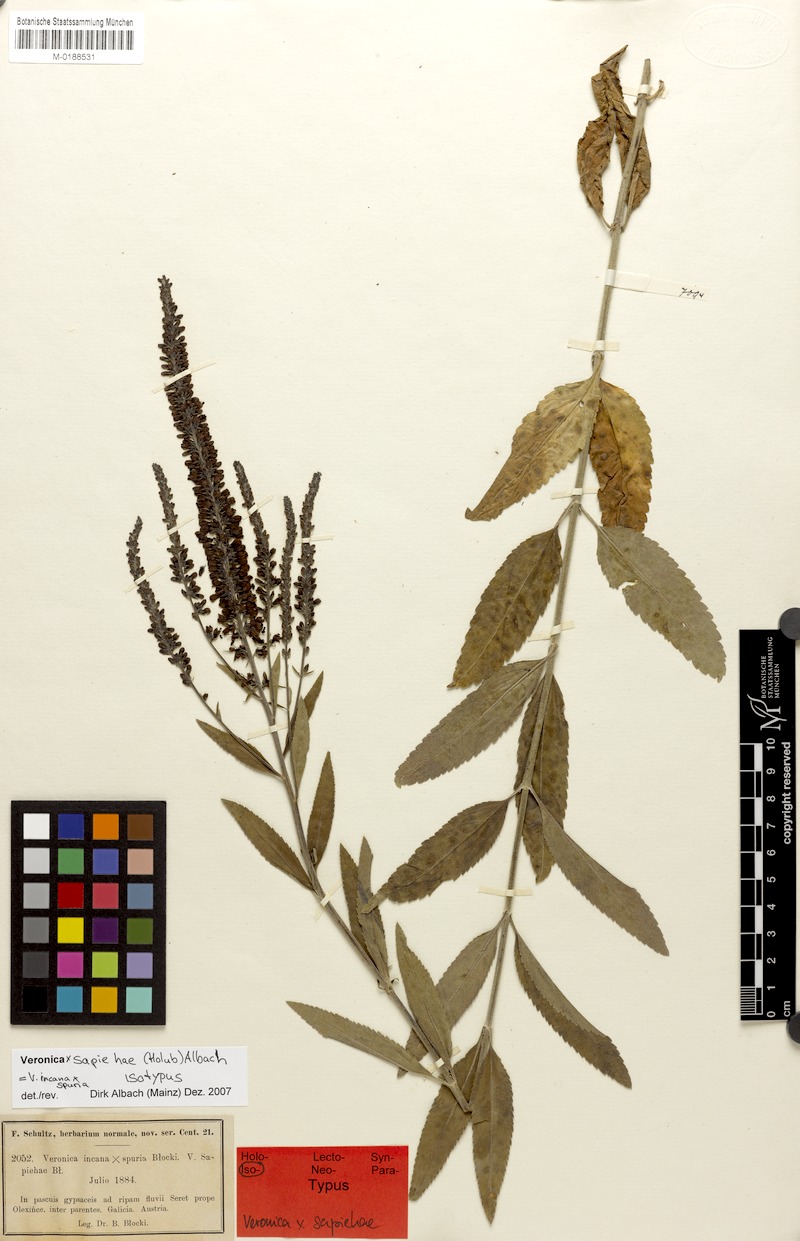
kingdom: Plantae
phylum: Tracheophyta
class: Magnoliopsida
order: Lamiales
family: Plantaginaceae
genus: Veronica
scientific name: Veronica sapiehae
